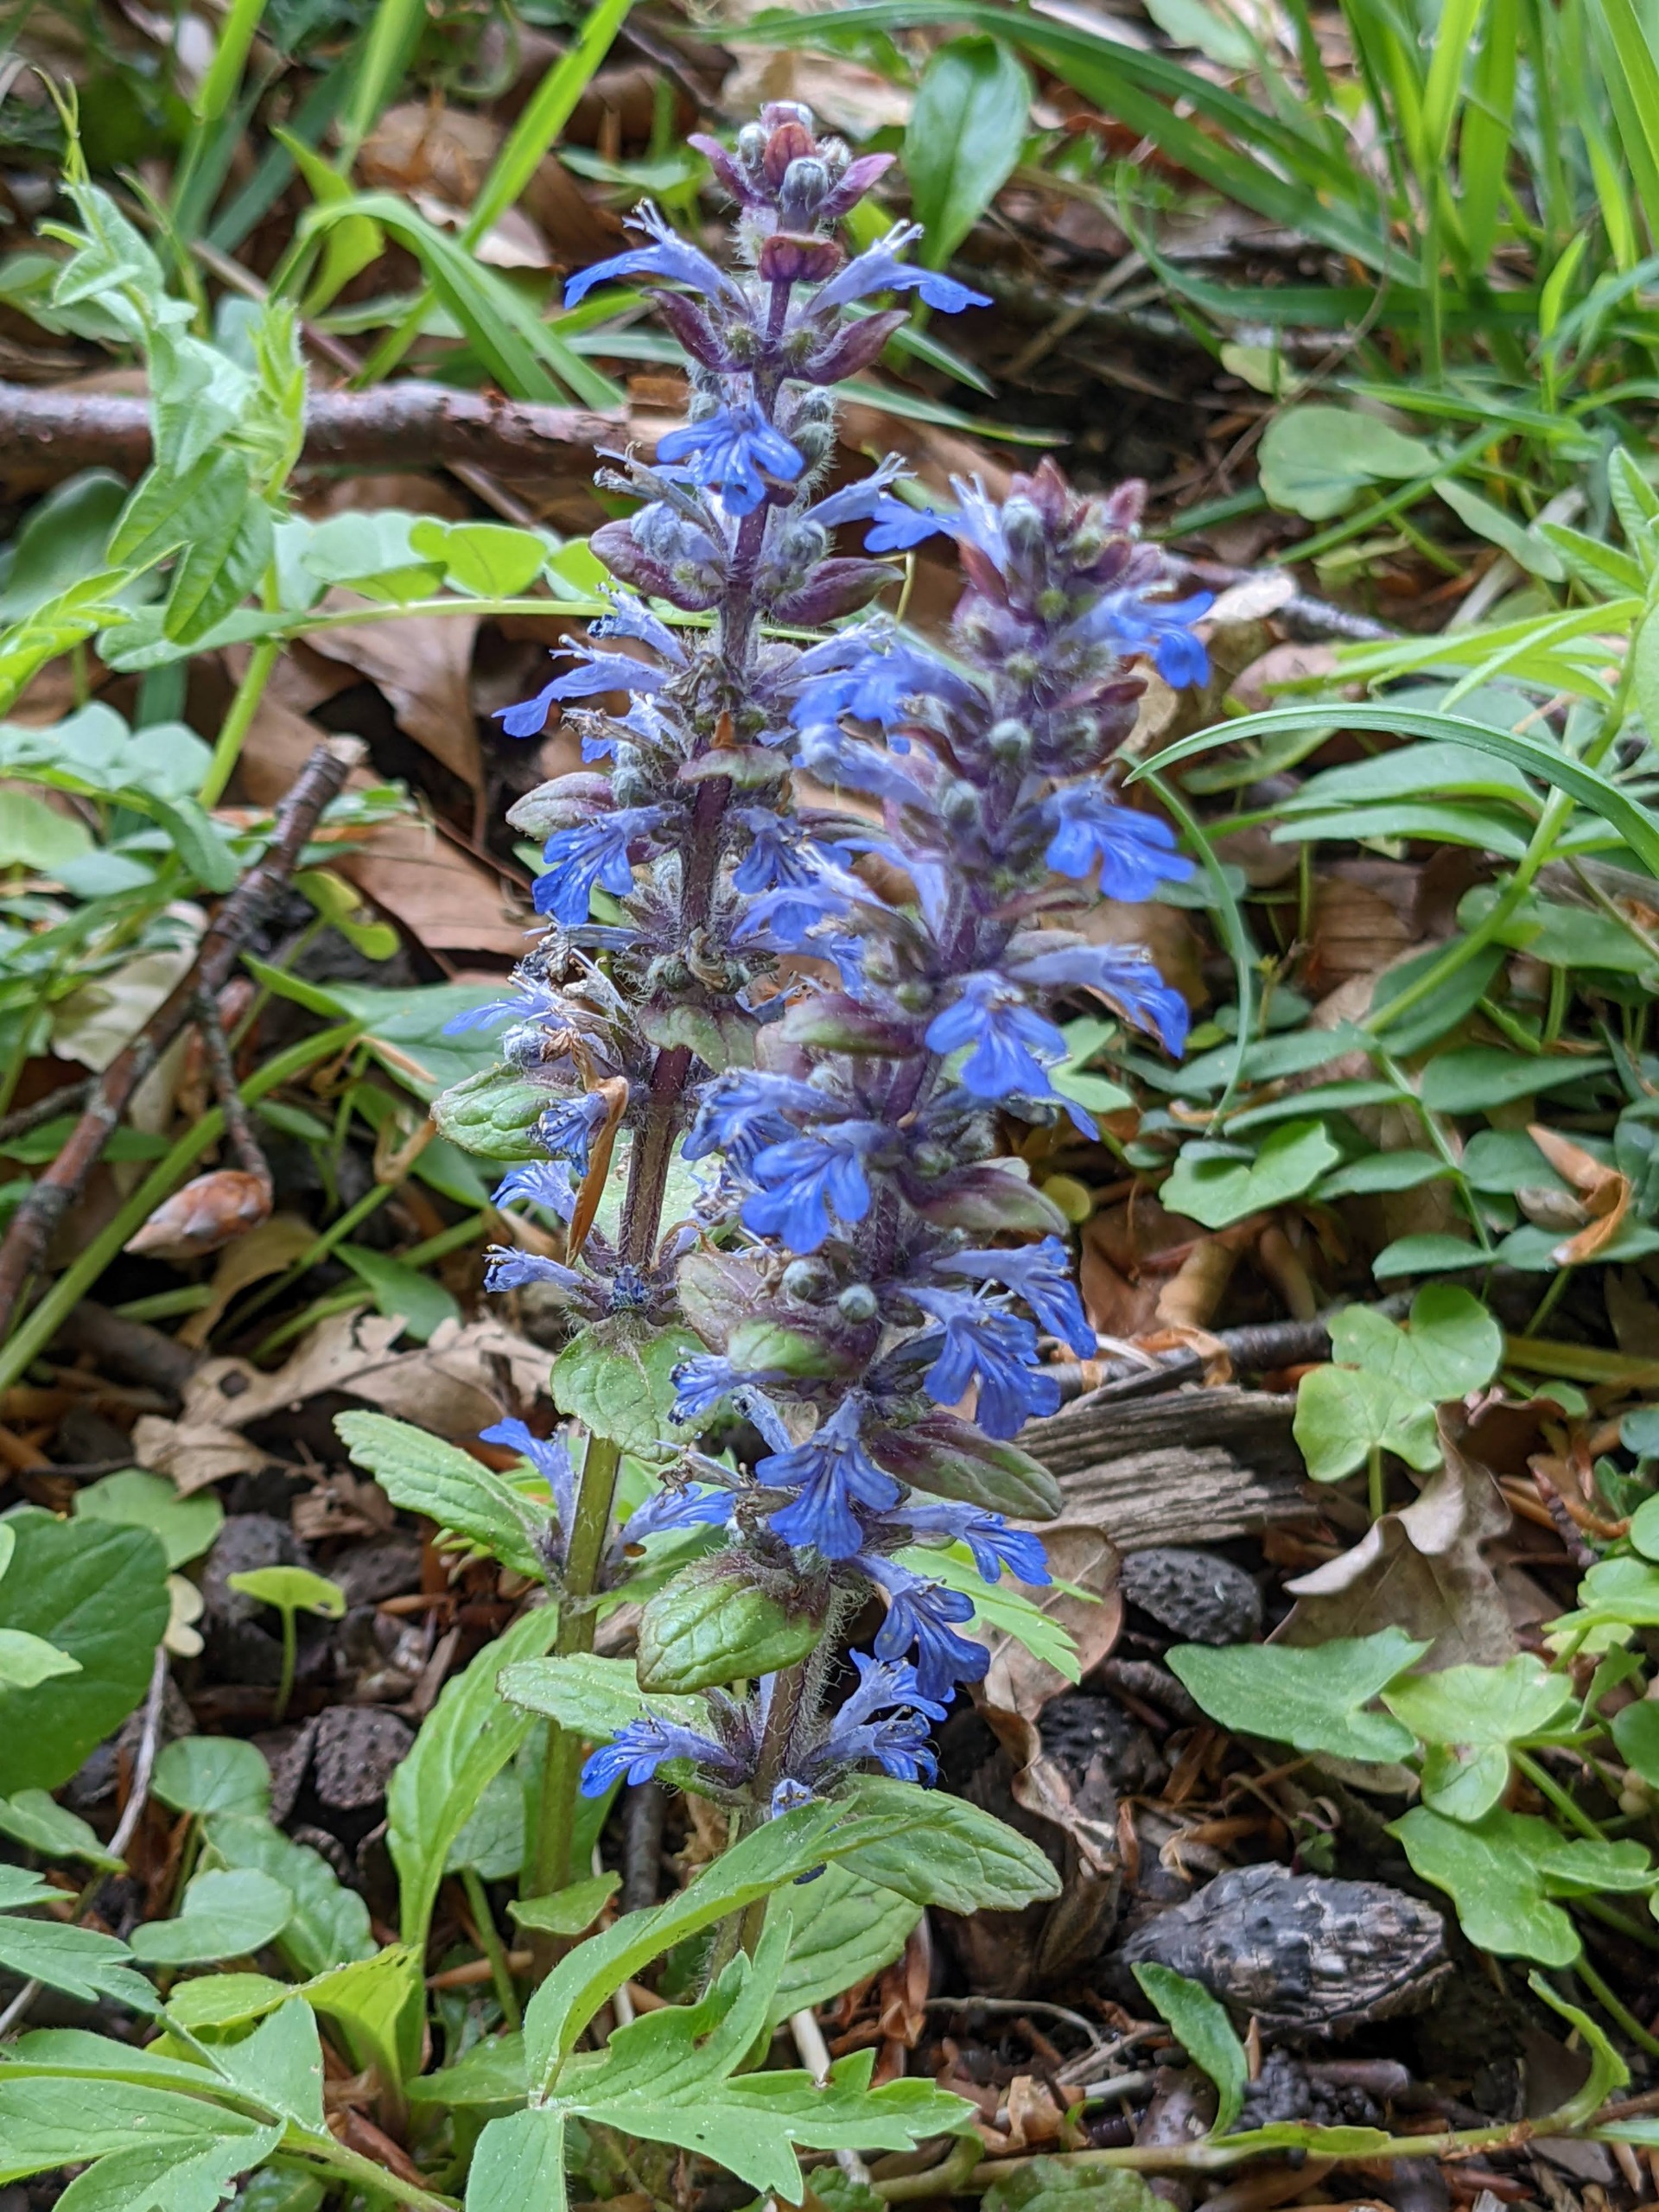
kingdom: Plantae
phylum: Tracheophyta
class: Magnoliopsida
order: Lamiales
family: Lamiaceae
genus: Ajuga
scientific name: Ajuga reptans
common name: Krybende læbeløs
